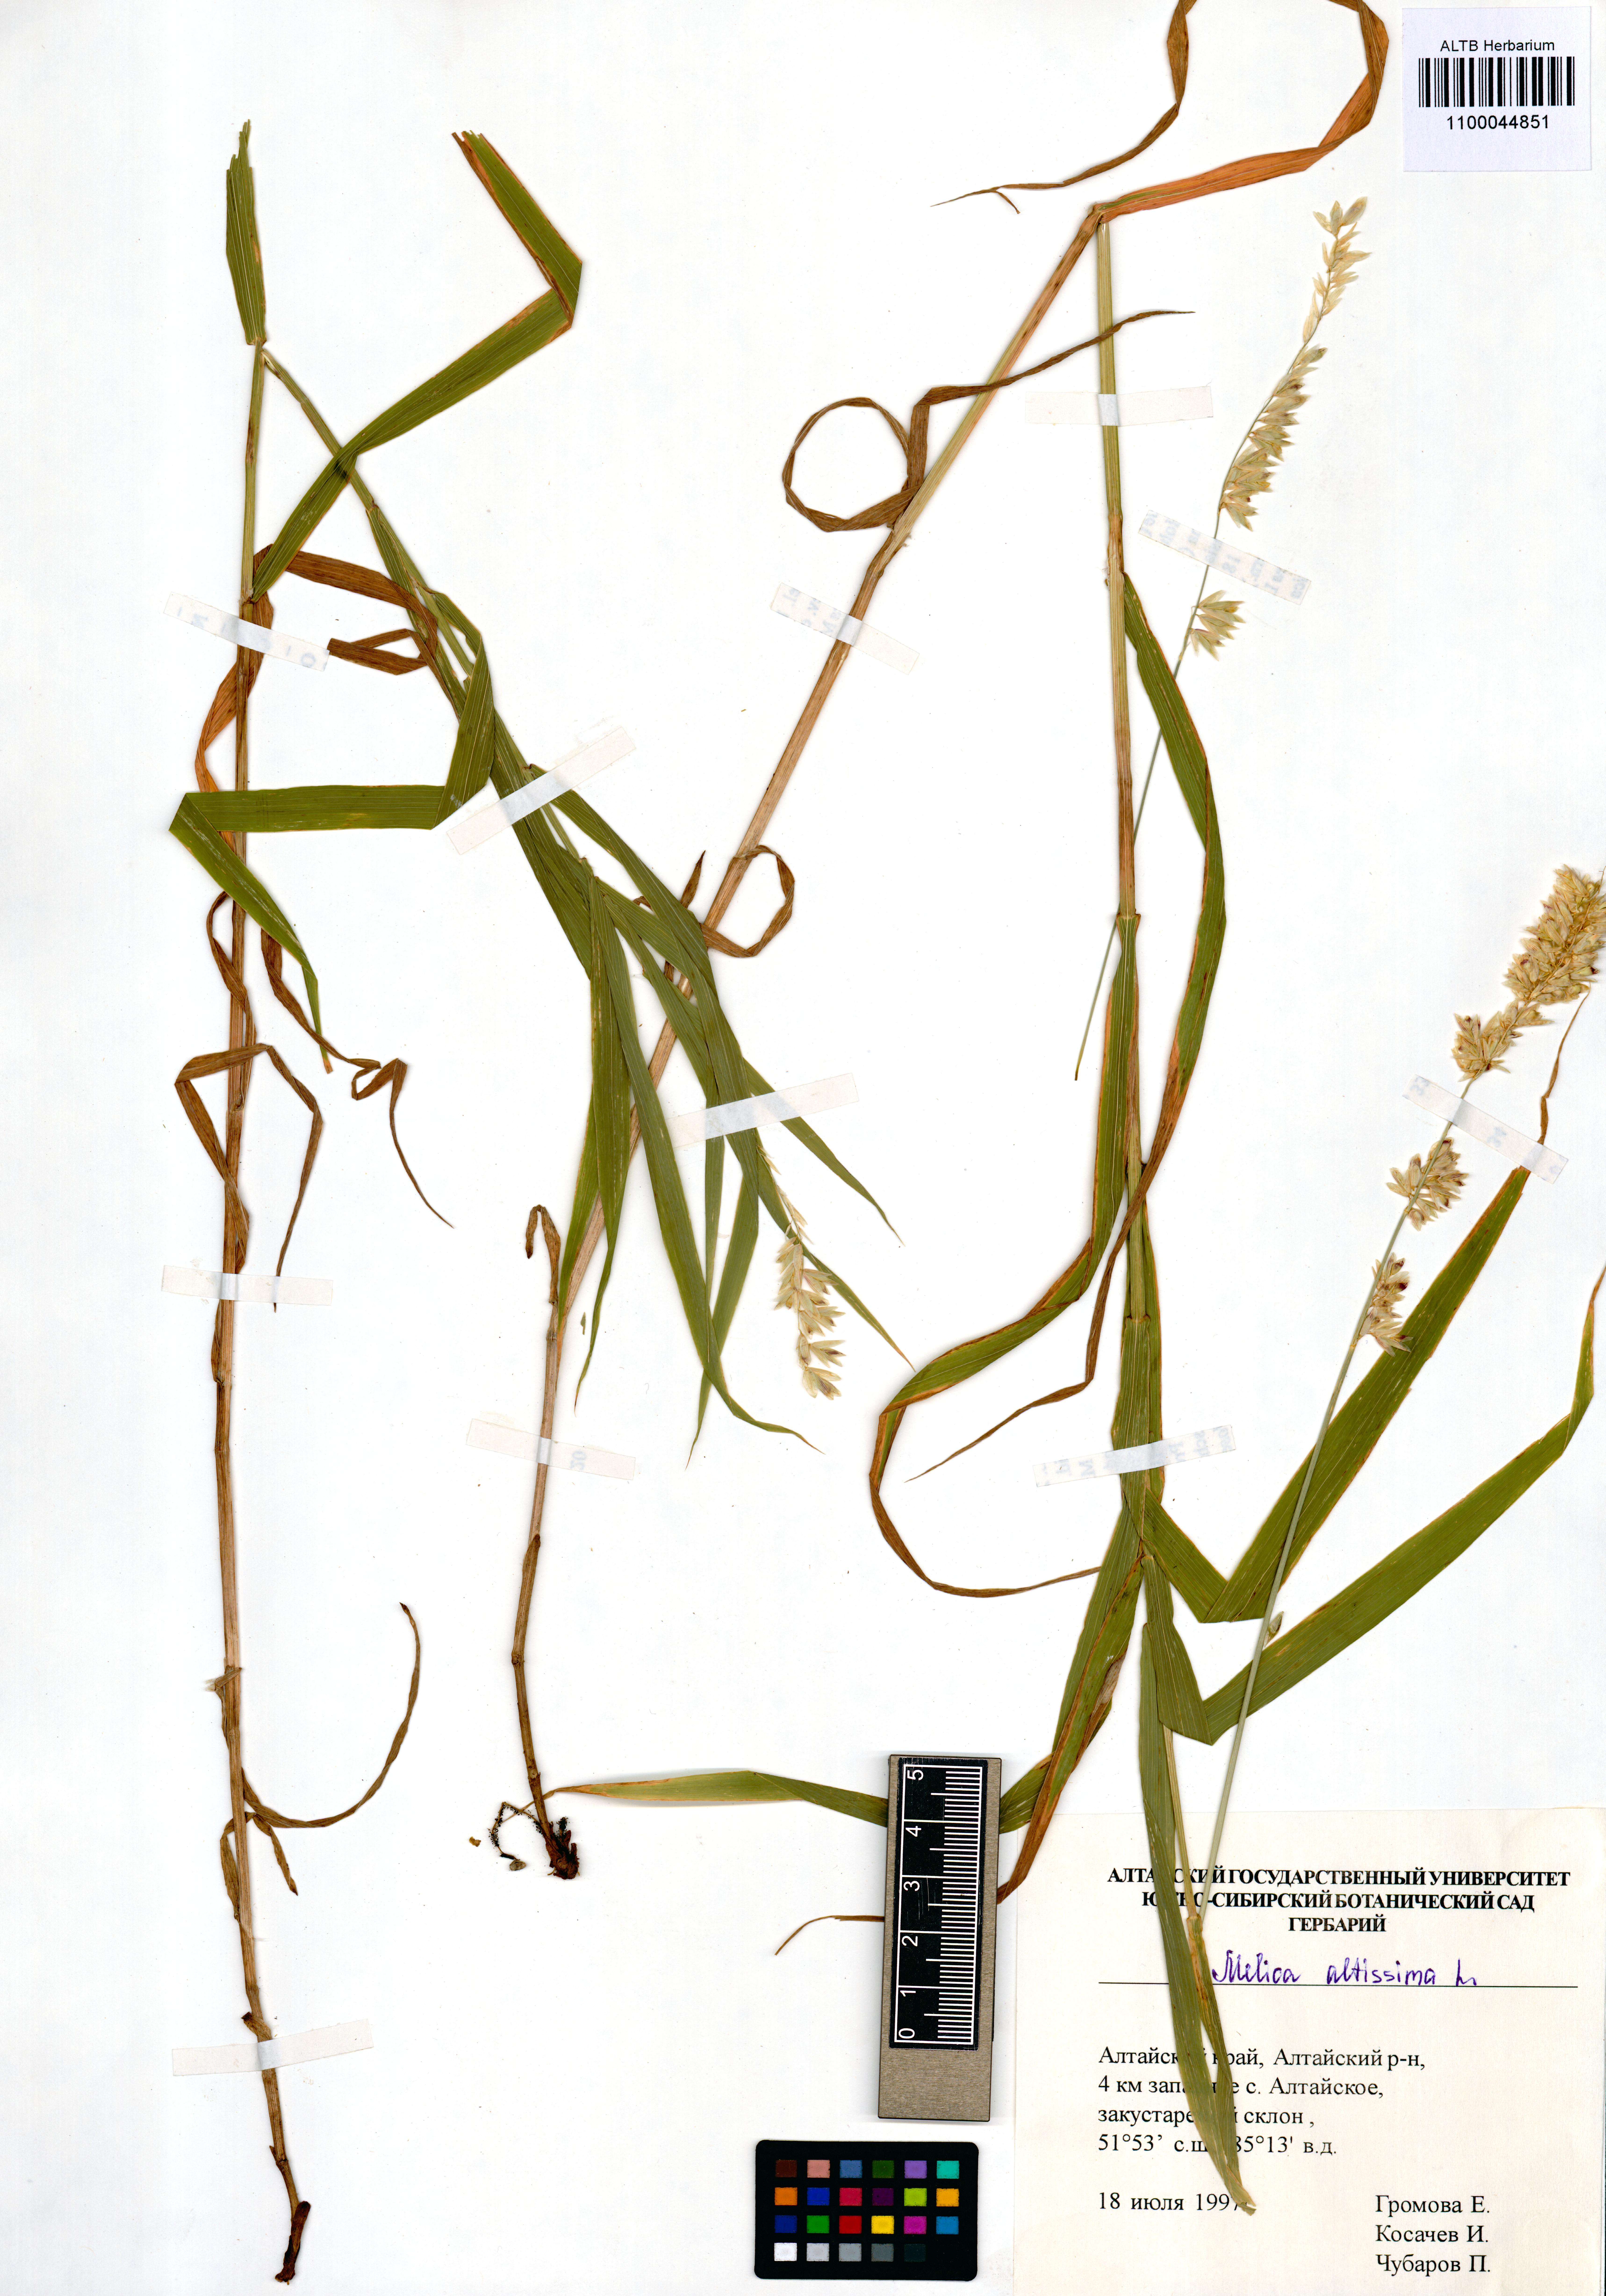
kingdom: Plantae
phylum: Tracheophyta
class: Liliopsida
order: Poales
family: Poaceae
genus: Melica
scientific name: Melica altissima
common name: Siberian melicgrass
